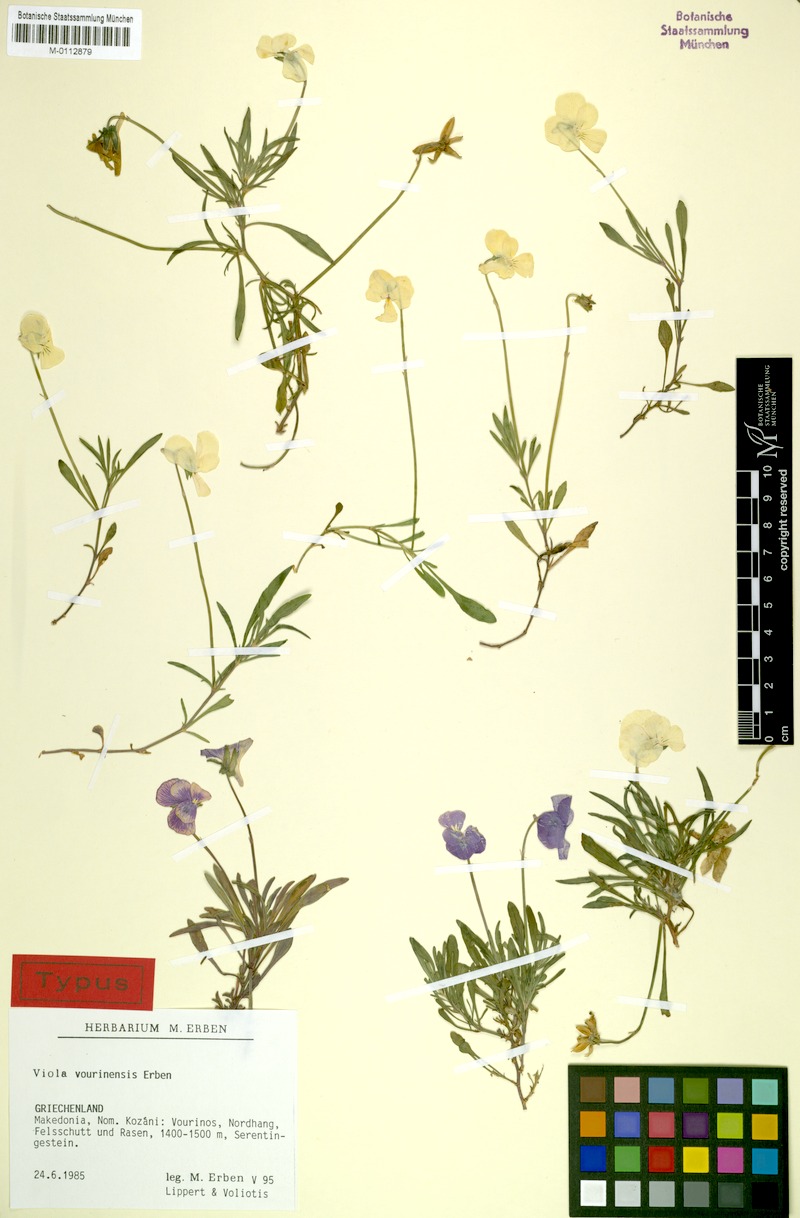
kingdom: Plantae
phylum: Tracheophyta
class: Magnoliopsida
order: Malpighiales
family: Violaceae
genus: Viola
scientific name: Viola vourinensis
